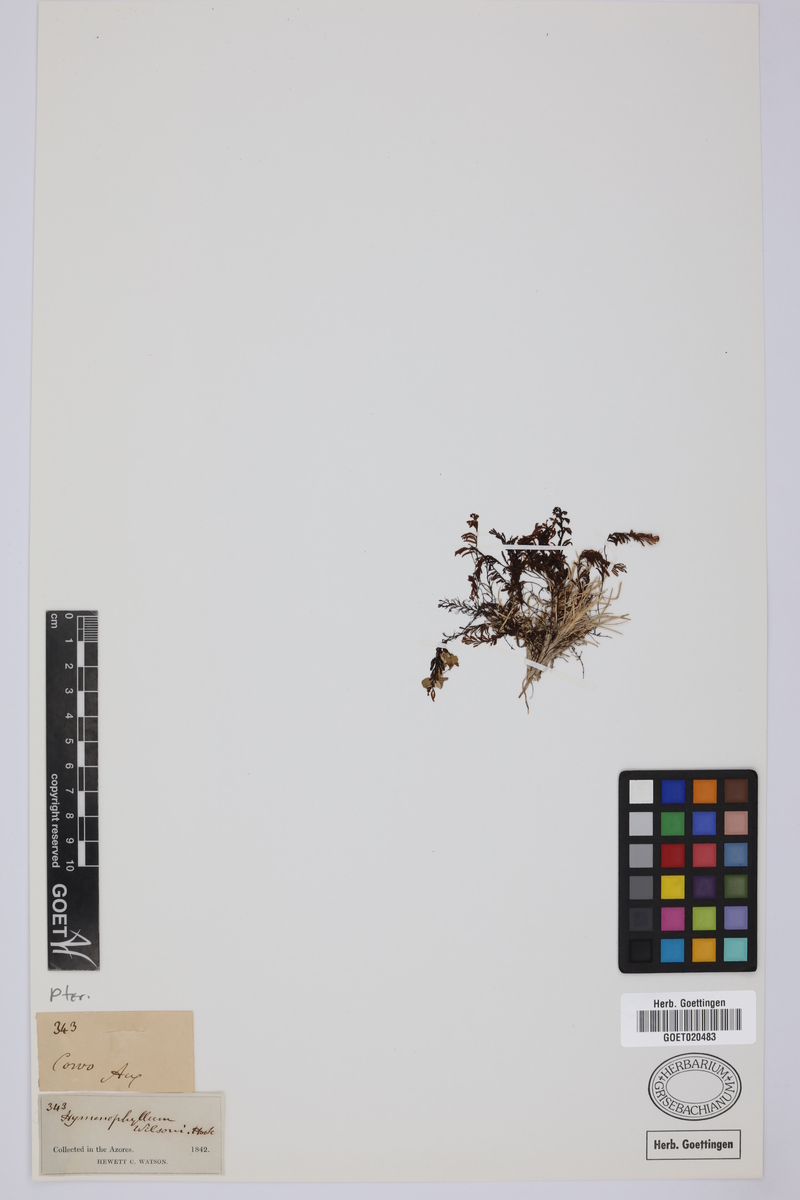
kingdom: Plantae
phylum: Tracheophyta
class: Polypodiopsida
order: Hymenophyllales
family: Hymenophyllaceae
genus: Hymenophyllum
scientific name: Hymenophyllum tunbrigense
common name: Tunbridge filmy fern
